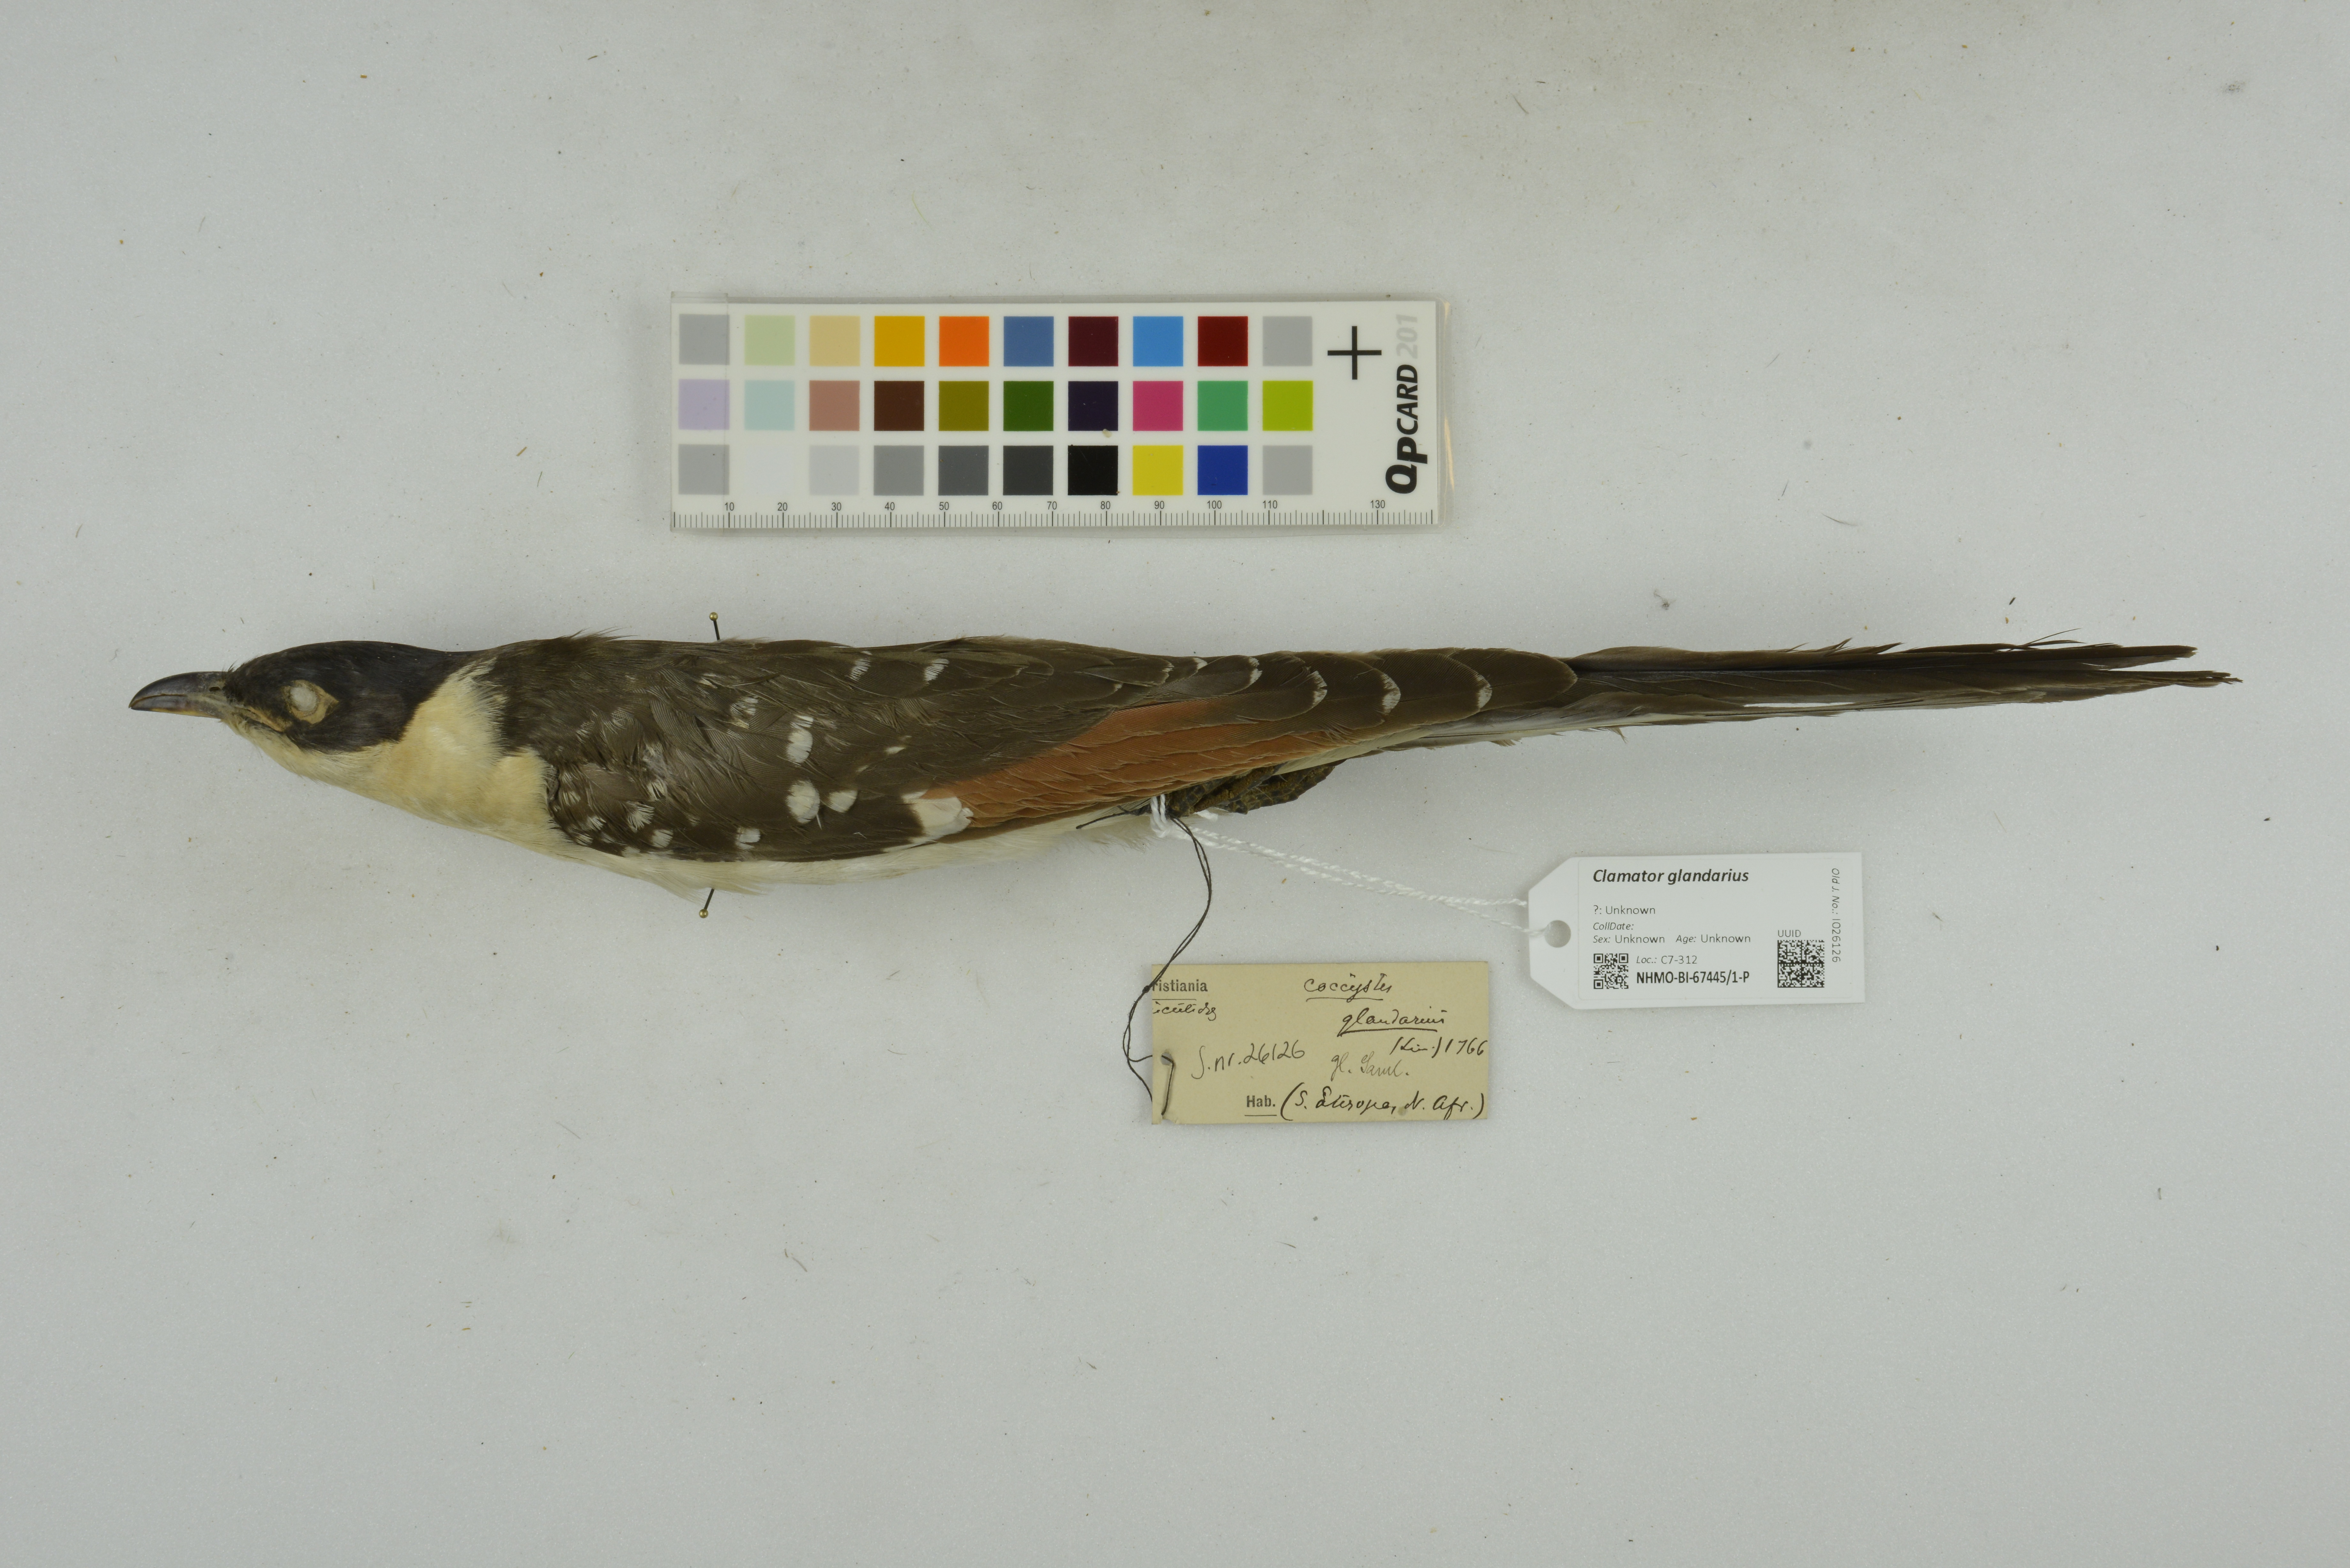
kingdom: Animalia
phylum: Chordata
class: Aves
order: Cuculiformes
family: Cuculidae
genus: Clamator
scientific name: Clamator glandarius
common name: Great spotted cuckoo
